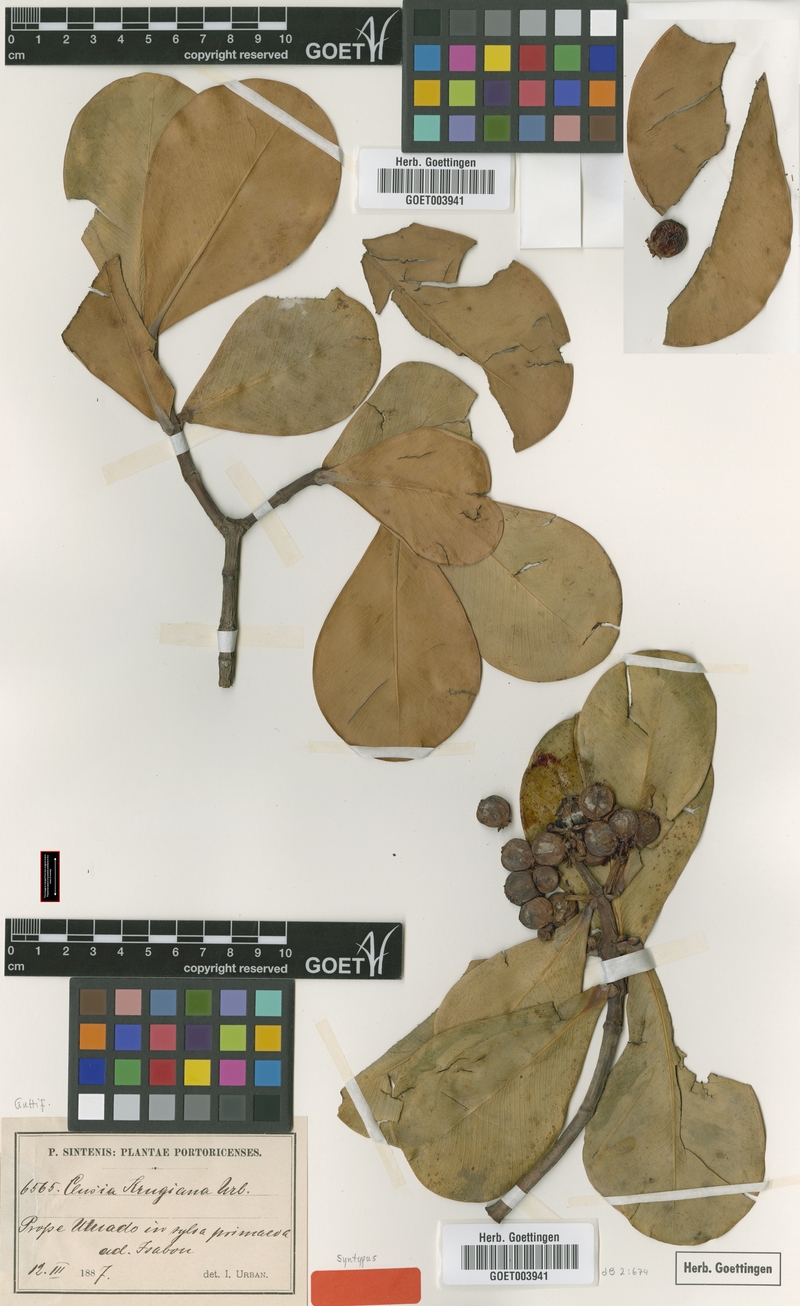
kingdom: Plantae
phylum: Tracheophyta
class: Magnoliopsida
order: Malpighiales
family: Clusiaceae
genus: Clusia
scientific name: Clusia clusioides
